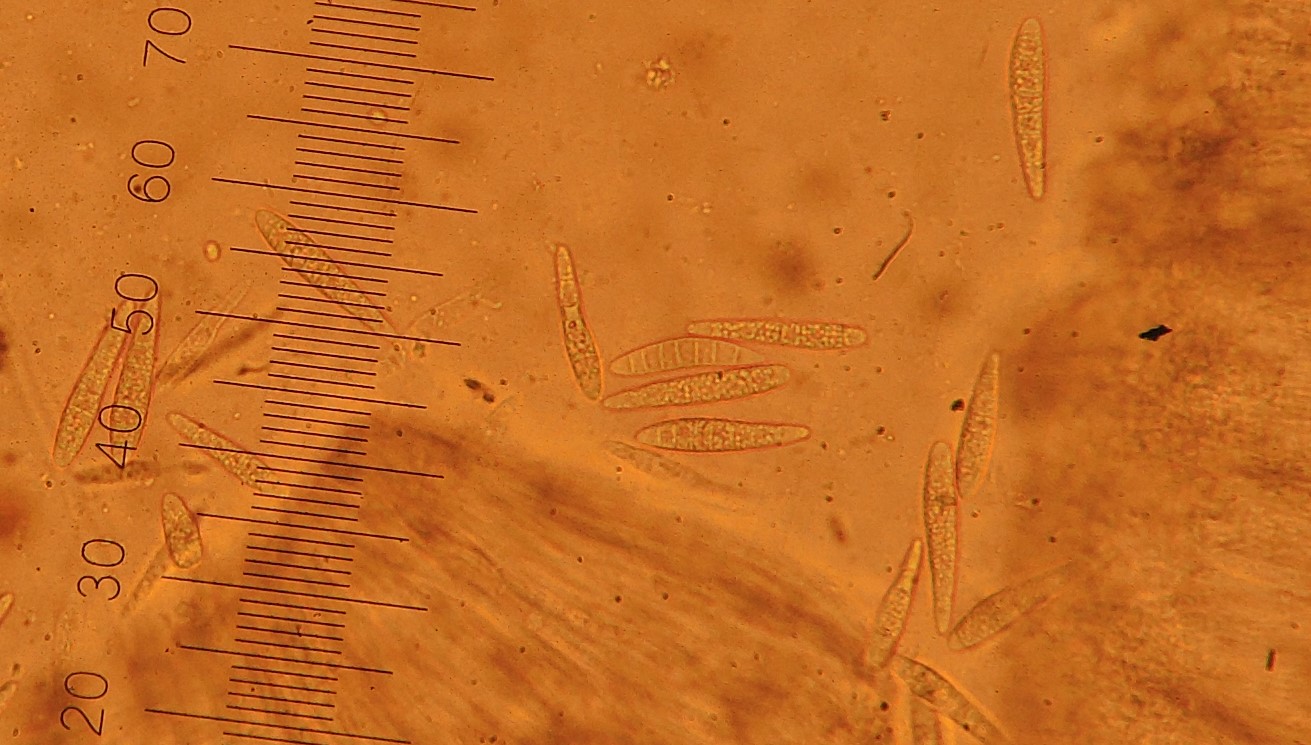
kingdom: Fungi
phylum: Ascomycota
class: Lecanoromycetes
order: Ostropales
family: Stictidaceae
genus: Karstenia
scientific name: Karstenia rhopaloides
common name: grårosa barkhul
